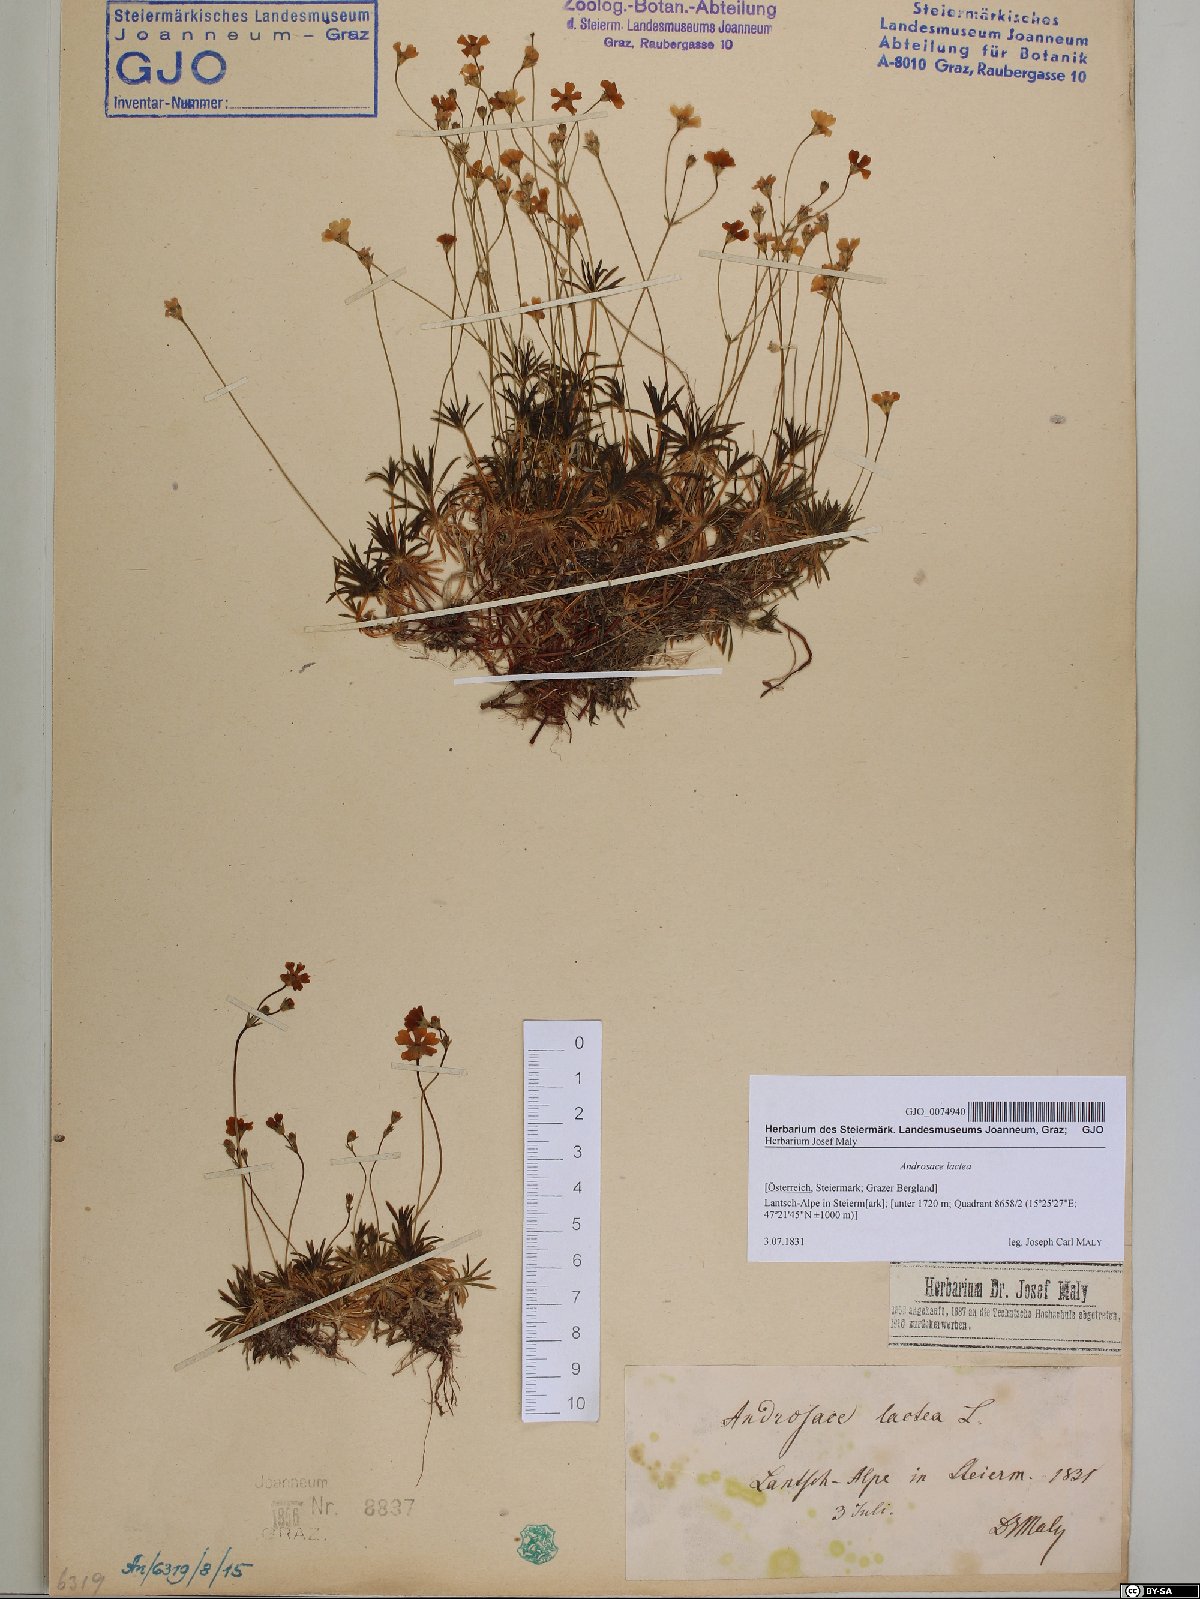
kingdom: Plantae
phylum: Tracheophyta
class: Magnoliopsida
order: Ericales
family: Primulaceae
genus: Androsace
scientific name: Androsace lactea
